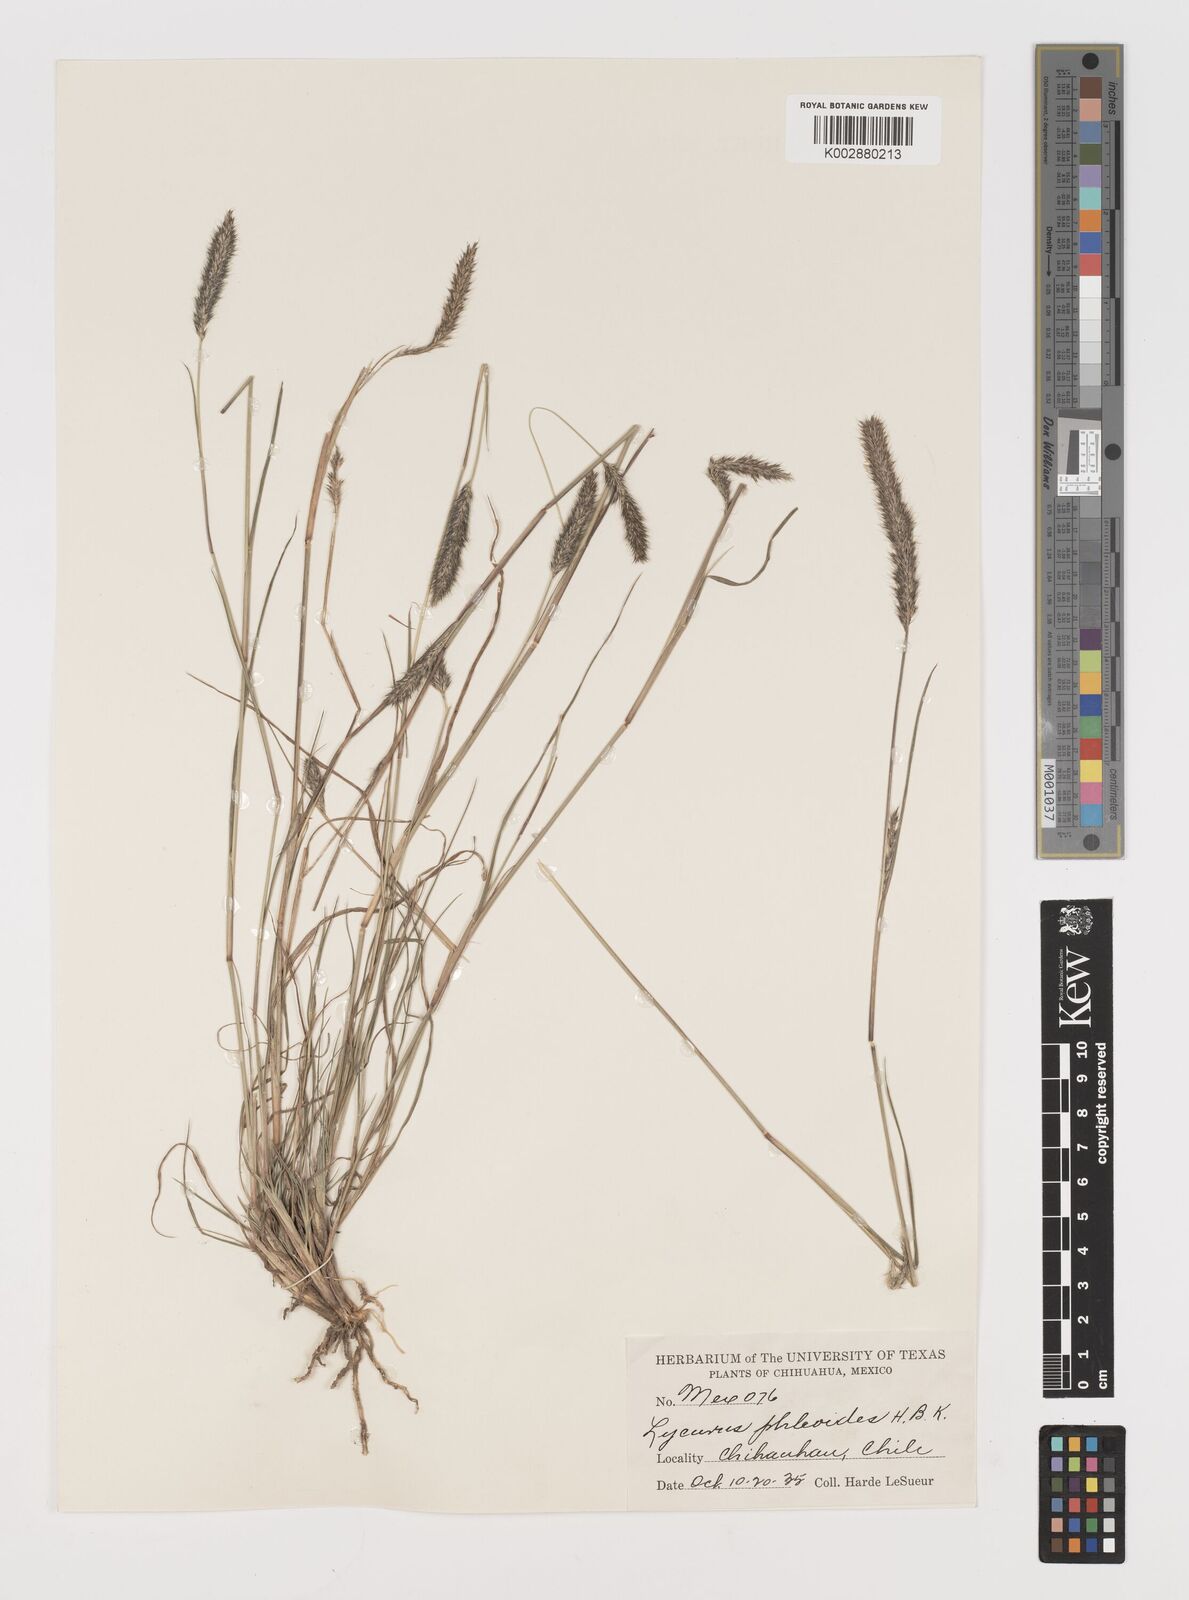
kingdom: Plantae
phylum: Tracheophyta
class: Liliopsida
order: Poales
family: Poaceae
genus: Muhlenbergia
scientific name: Muhlenbergia phleoides
